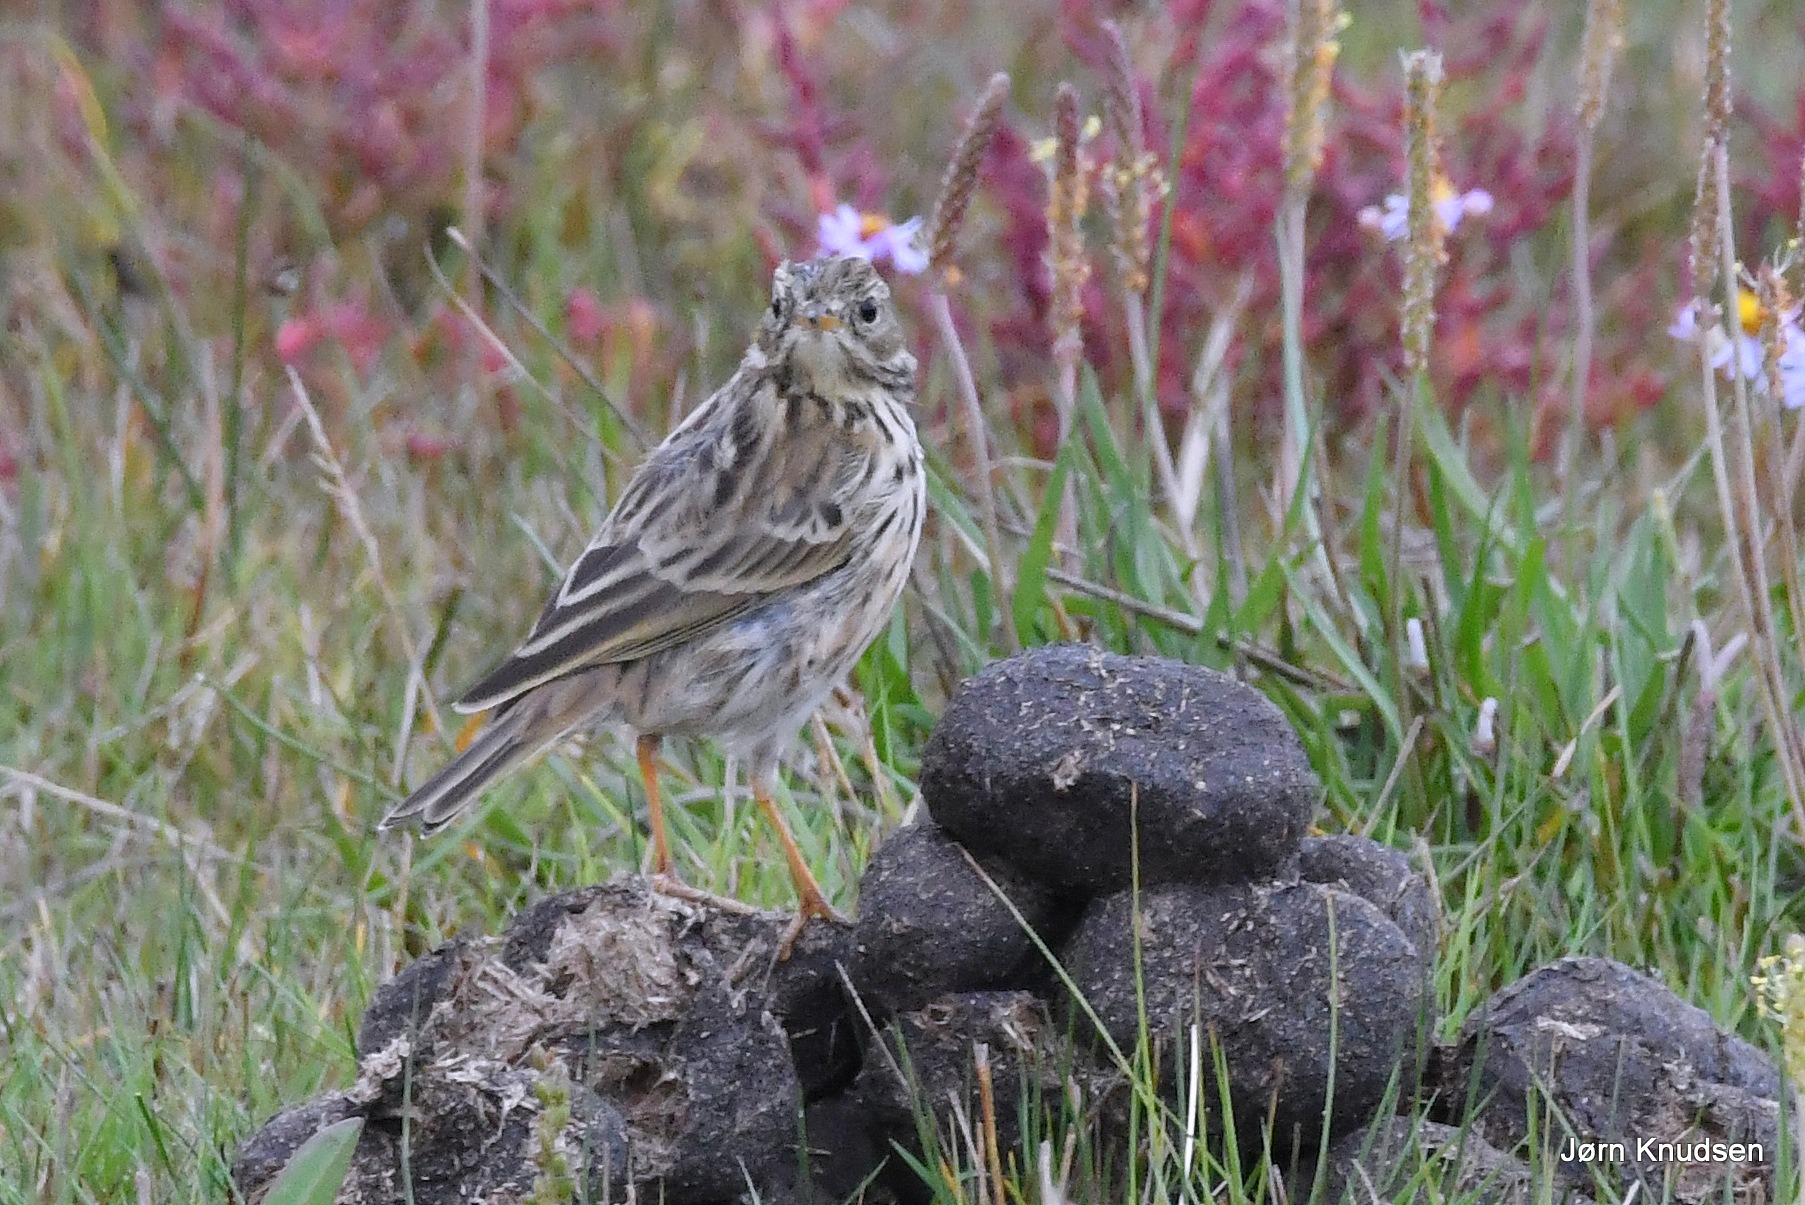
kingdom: Animalia
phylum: Chordata
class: Aves
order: Passeriformes
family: Motacillidae
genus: Anthus
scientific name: Anthus pratensis
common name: Engpiber
